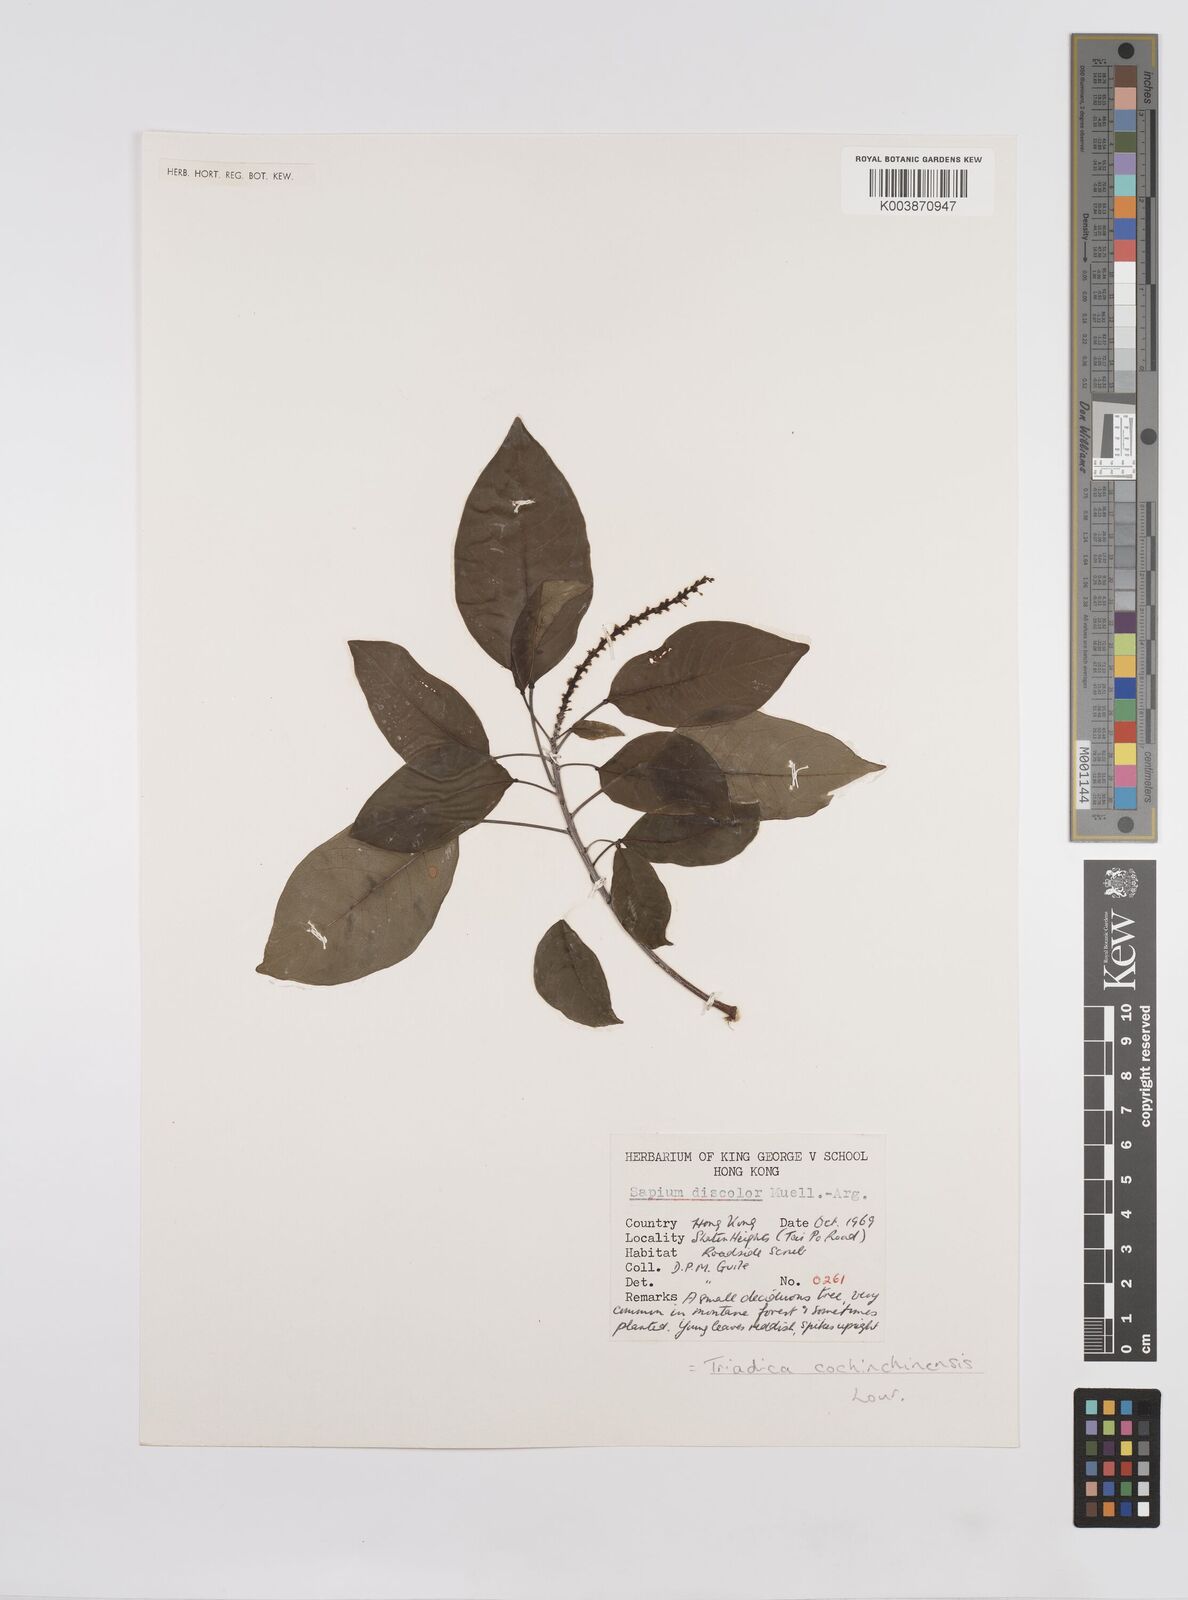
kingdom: Plantae
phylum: Tracheophyta
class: Magnoliopsida
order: Malpighiales
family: Euphorbiaceae
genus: Triadica
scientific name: Triadica cochinchinensis
